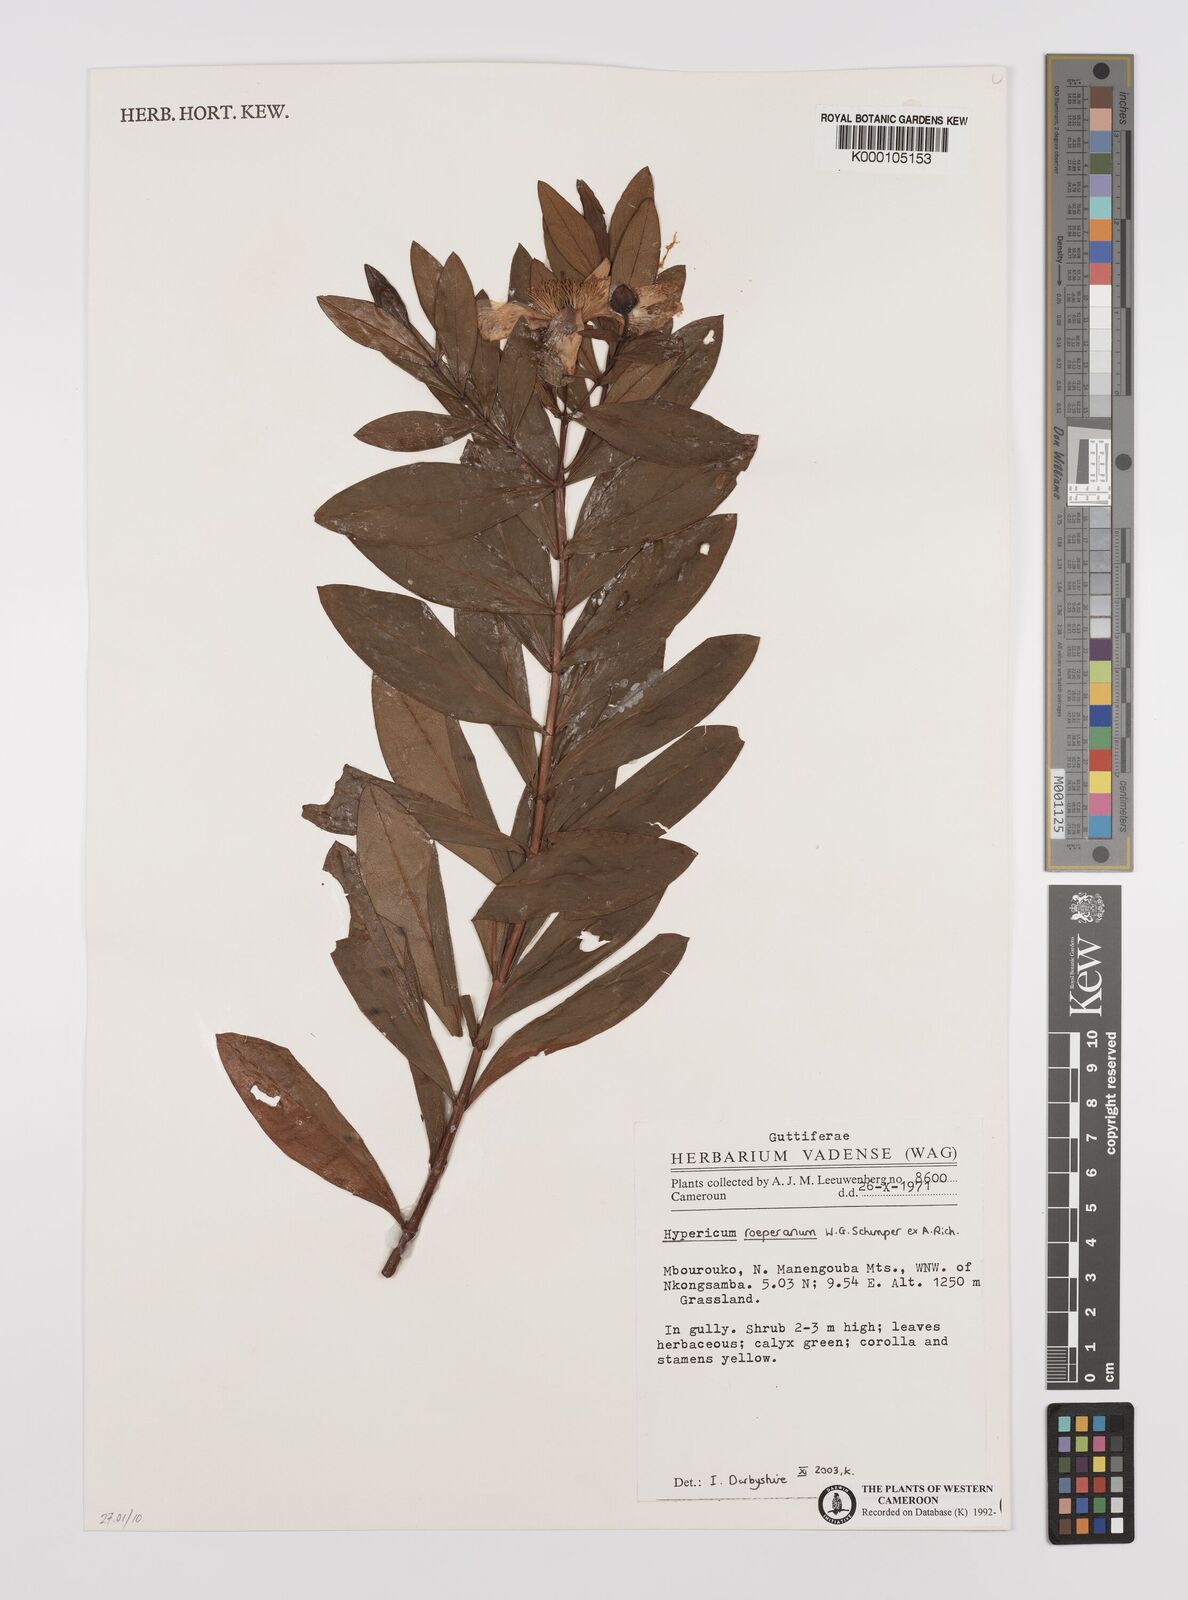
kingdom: Plantae
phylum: Tracheophyta
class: Magnoliopsida
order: Malpighiales
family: Hypericaceae
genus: Hypericum
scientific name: Hypericum roeperianum
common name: Large-leaved curry-bush
